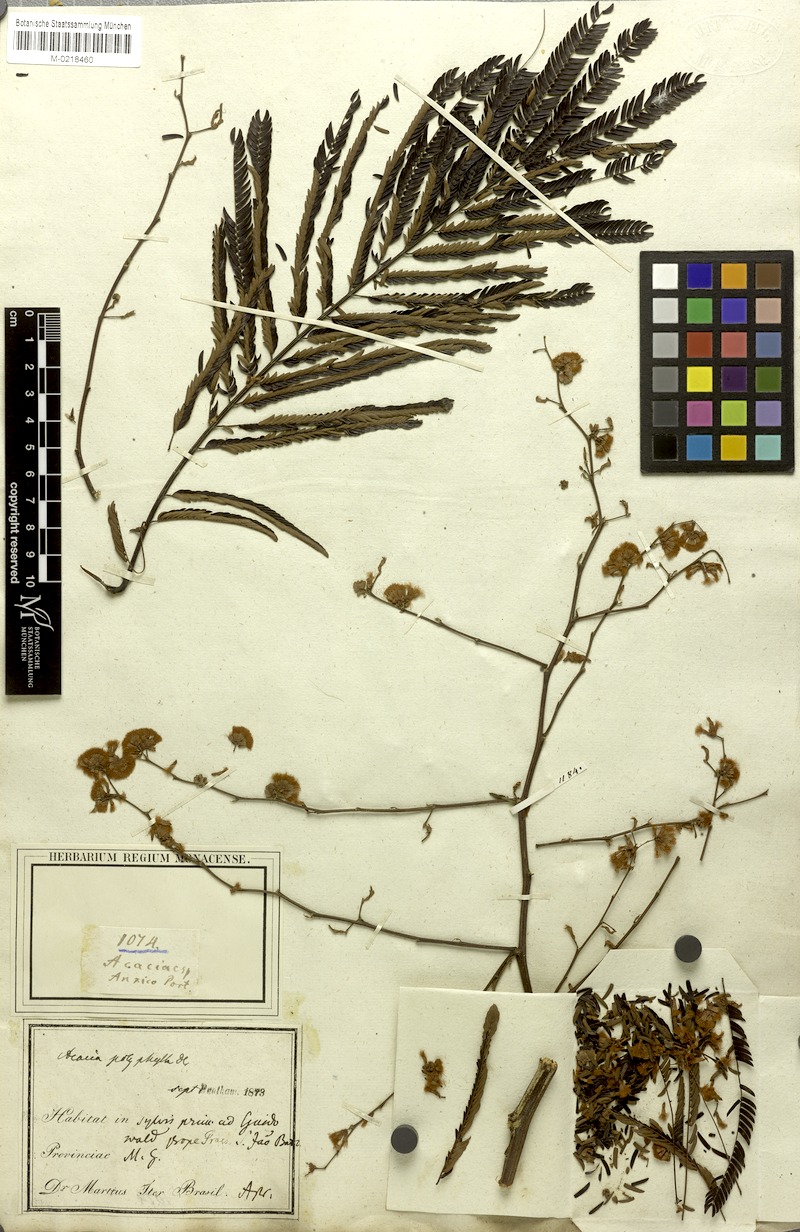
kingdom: Plantae
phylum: Tracheophyta
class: Magnoliopsida
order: Fabales
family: Fabaceae
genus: Senegalia
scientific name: Senegalia polyphylla
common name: White-tamarind
